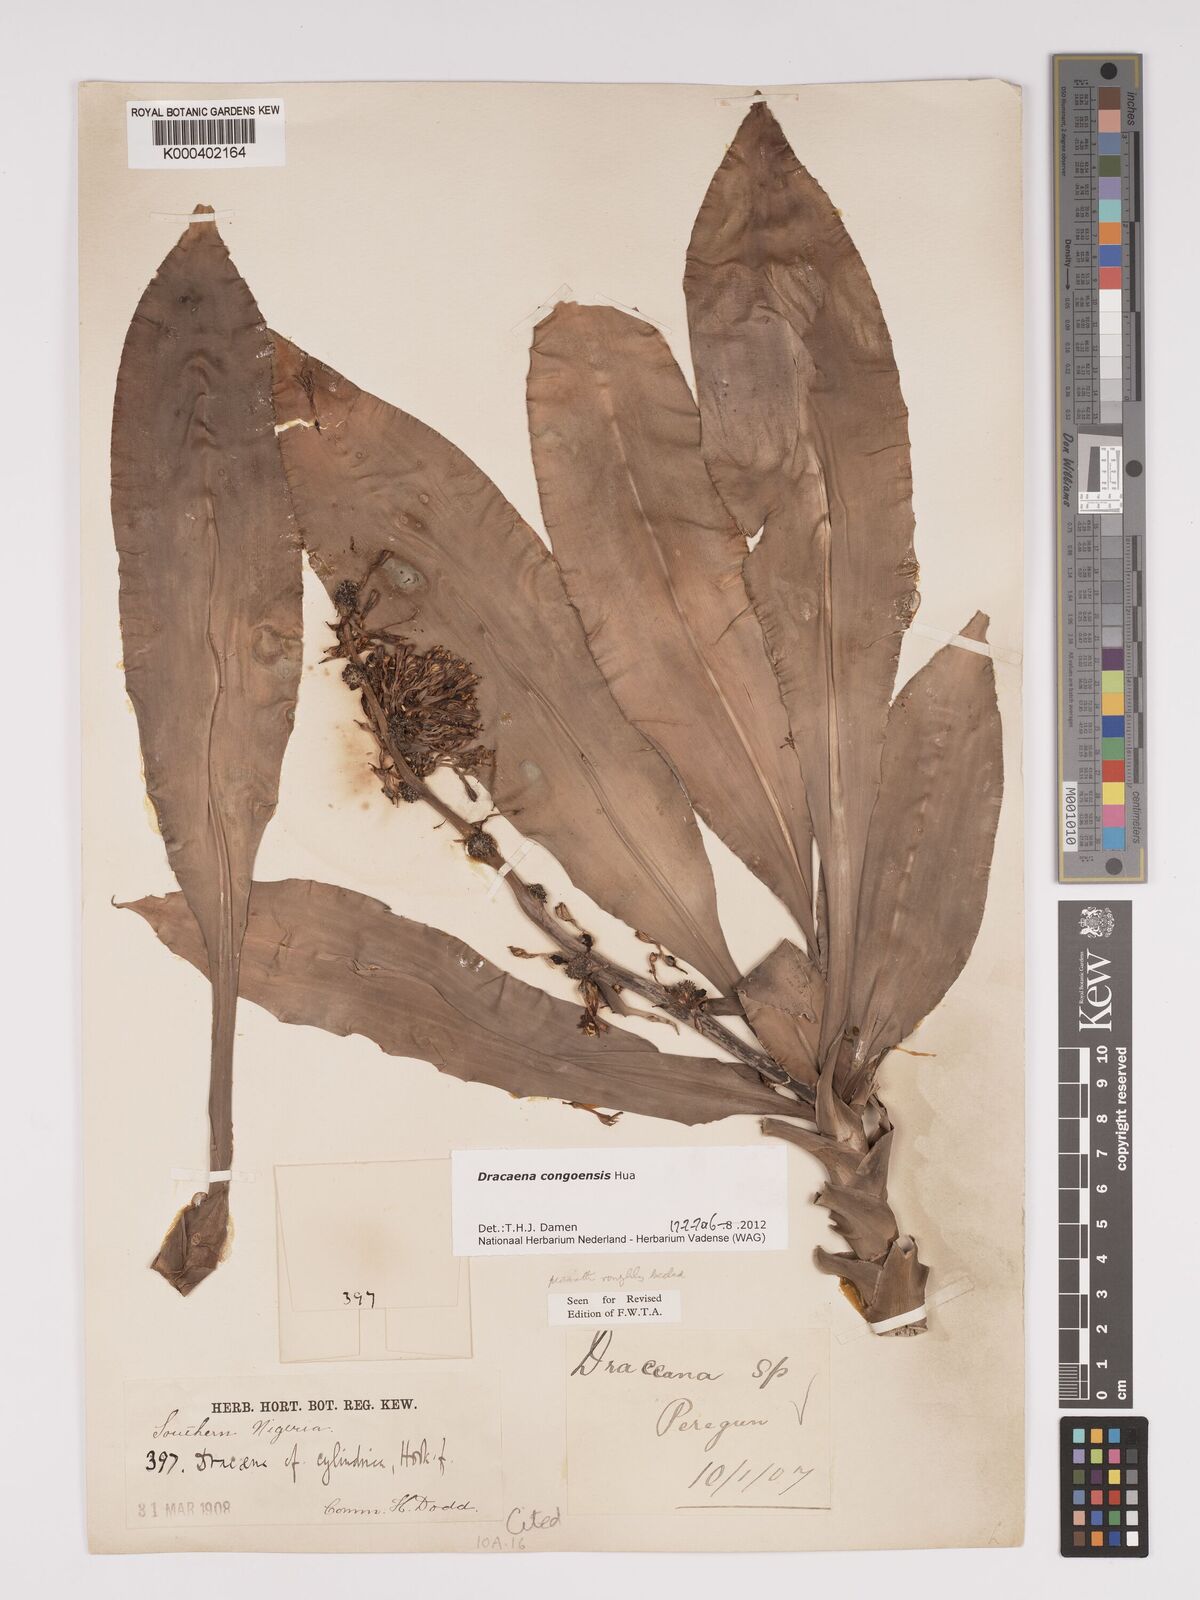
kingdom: Plantae
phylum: Tracheophyta
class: Liliopsida
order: Asparagales
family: Asparagaceae
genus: Dracaena
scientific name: Dracaena congoensis
